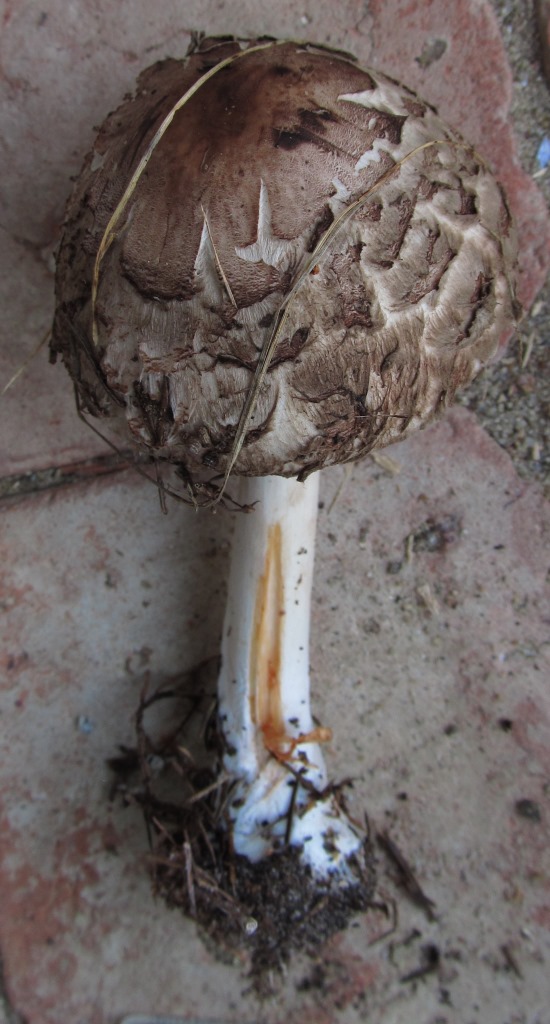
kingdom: Fungi
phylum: Basidiomycota
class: Agaricomycetes
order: Agaricales
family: Agaricaceae
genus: Chlorophyllum
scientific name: Chlorophyllum rhacodes
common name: ægte rabarberhat
